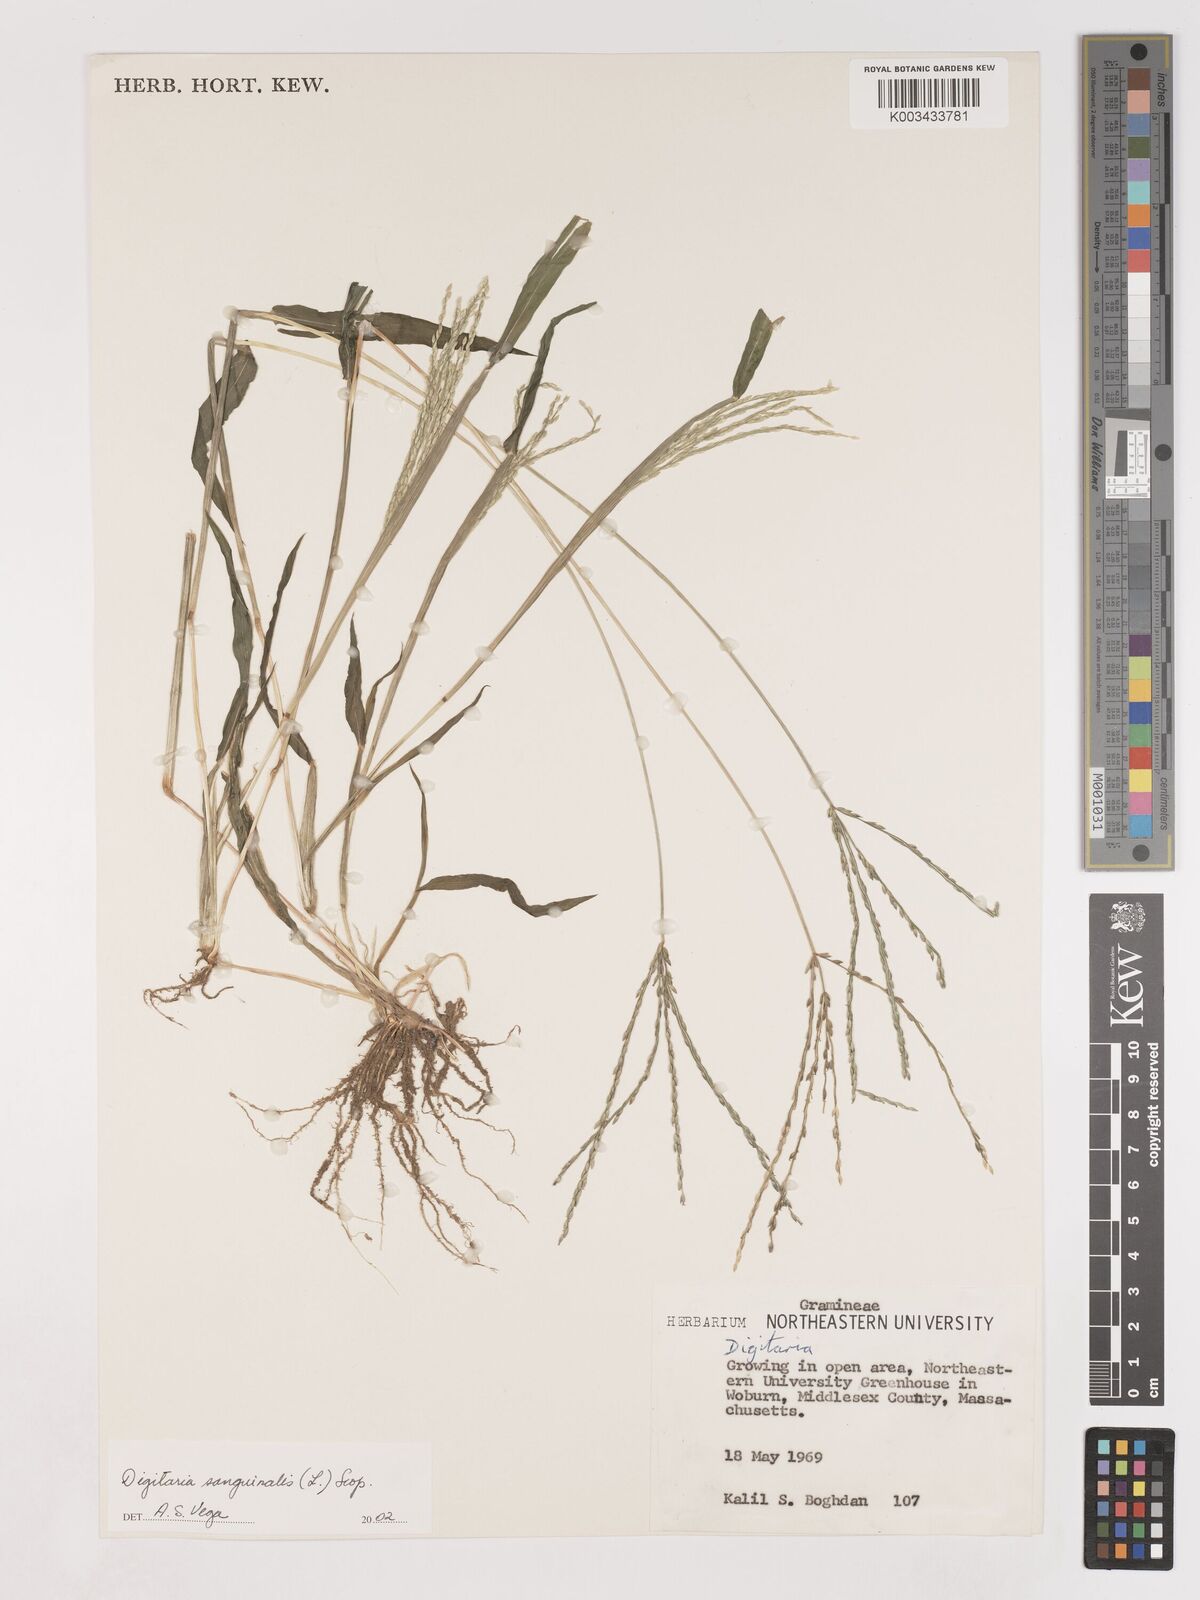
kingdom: Plantae
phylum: Tracheophyta
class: Liliopsida
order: Poales
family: Poaceae
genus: Digitaria
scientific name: Digitaria sanguinalis
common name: Hairy crabgrass
